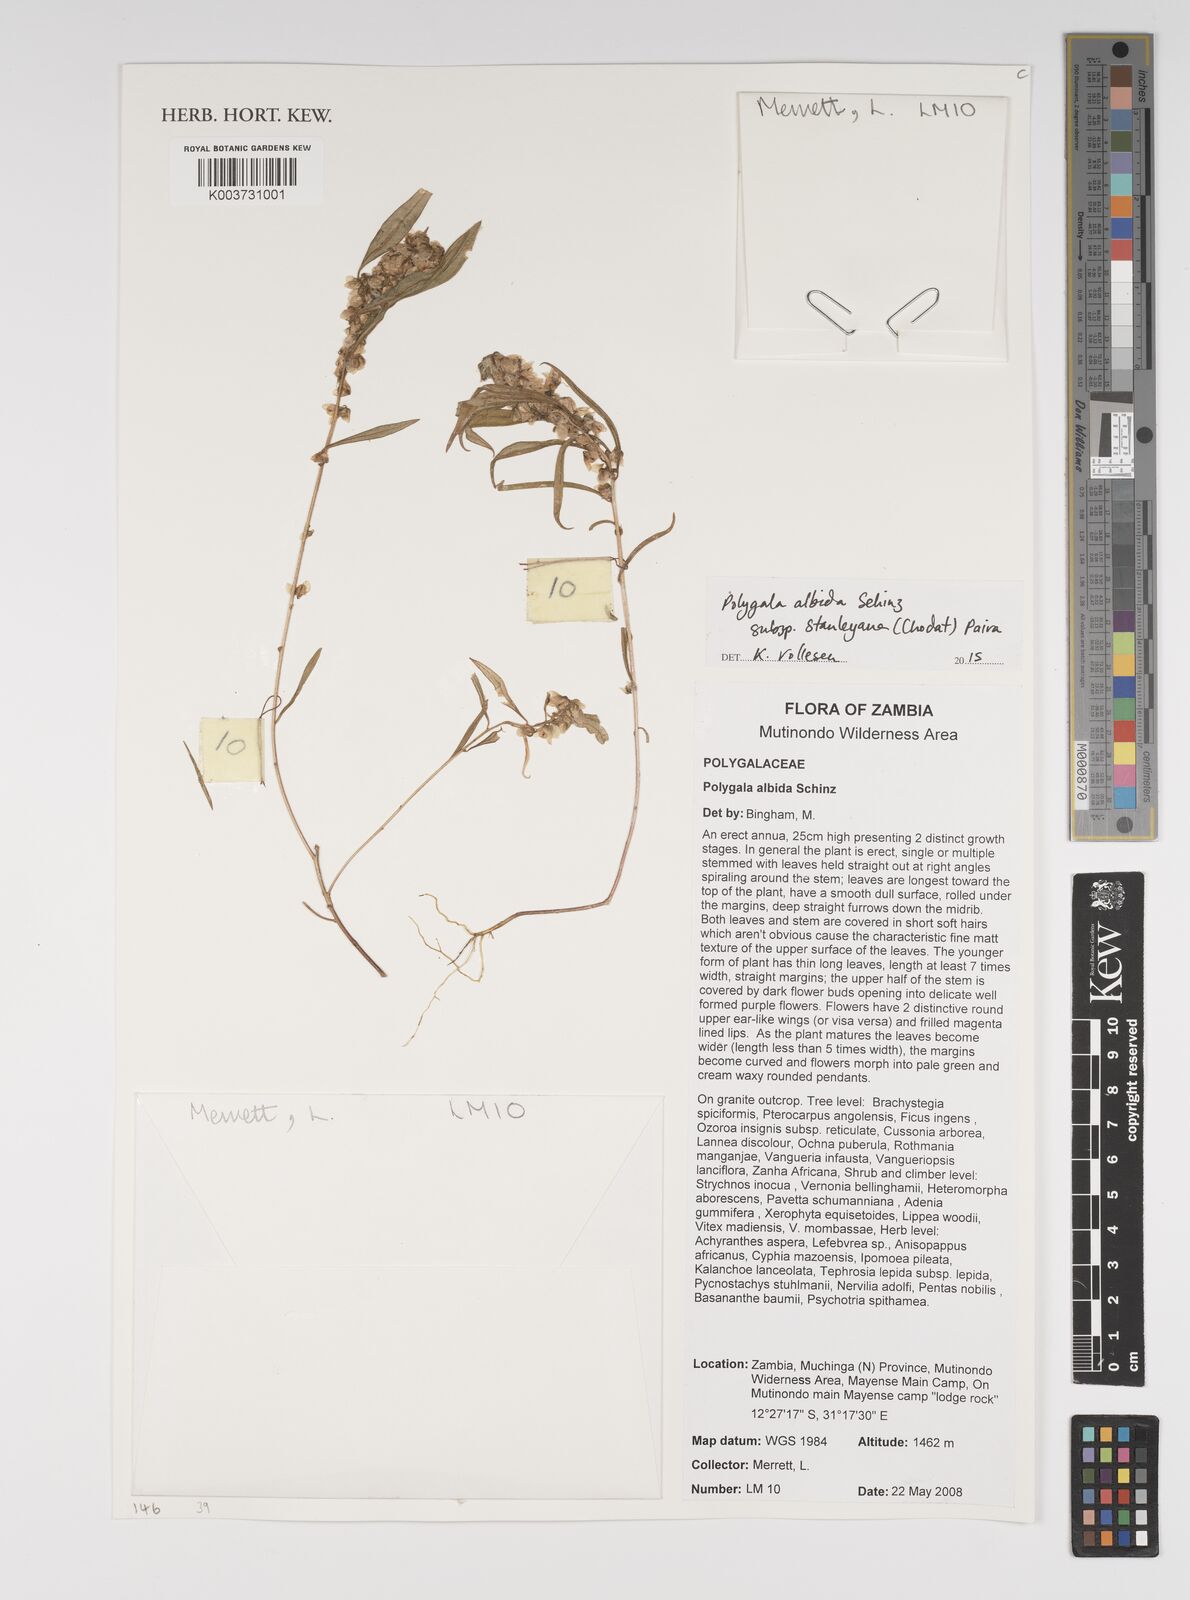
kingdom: Plantae
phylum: Tracheophyta
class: Magnoliopsida
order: Fabales
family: Polygalaceae
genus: Polygala
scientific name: Polygala albida
